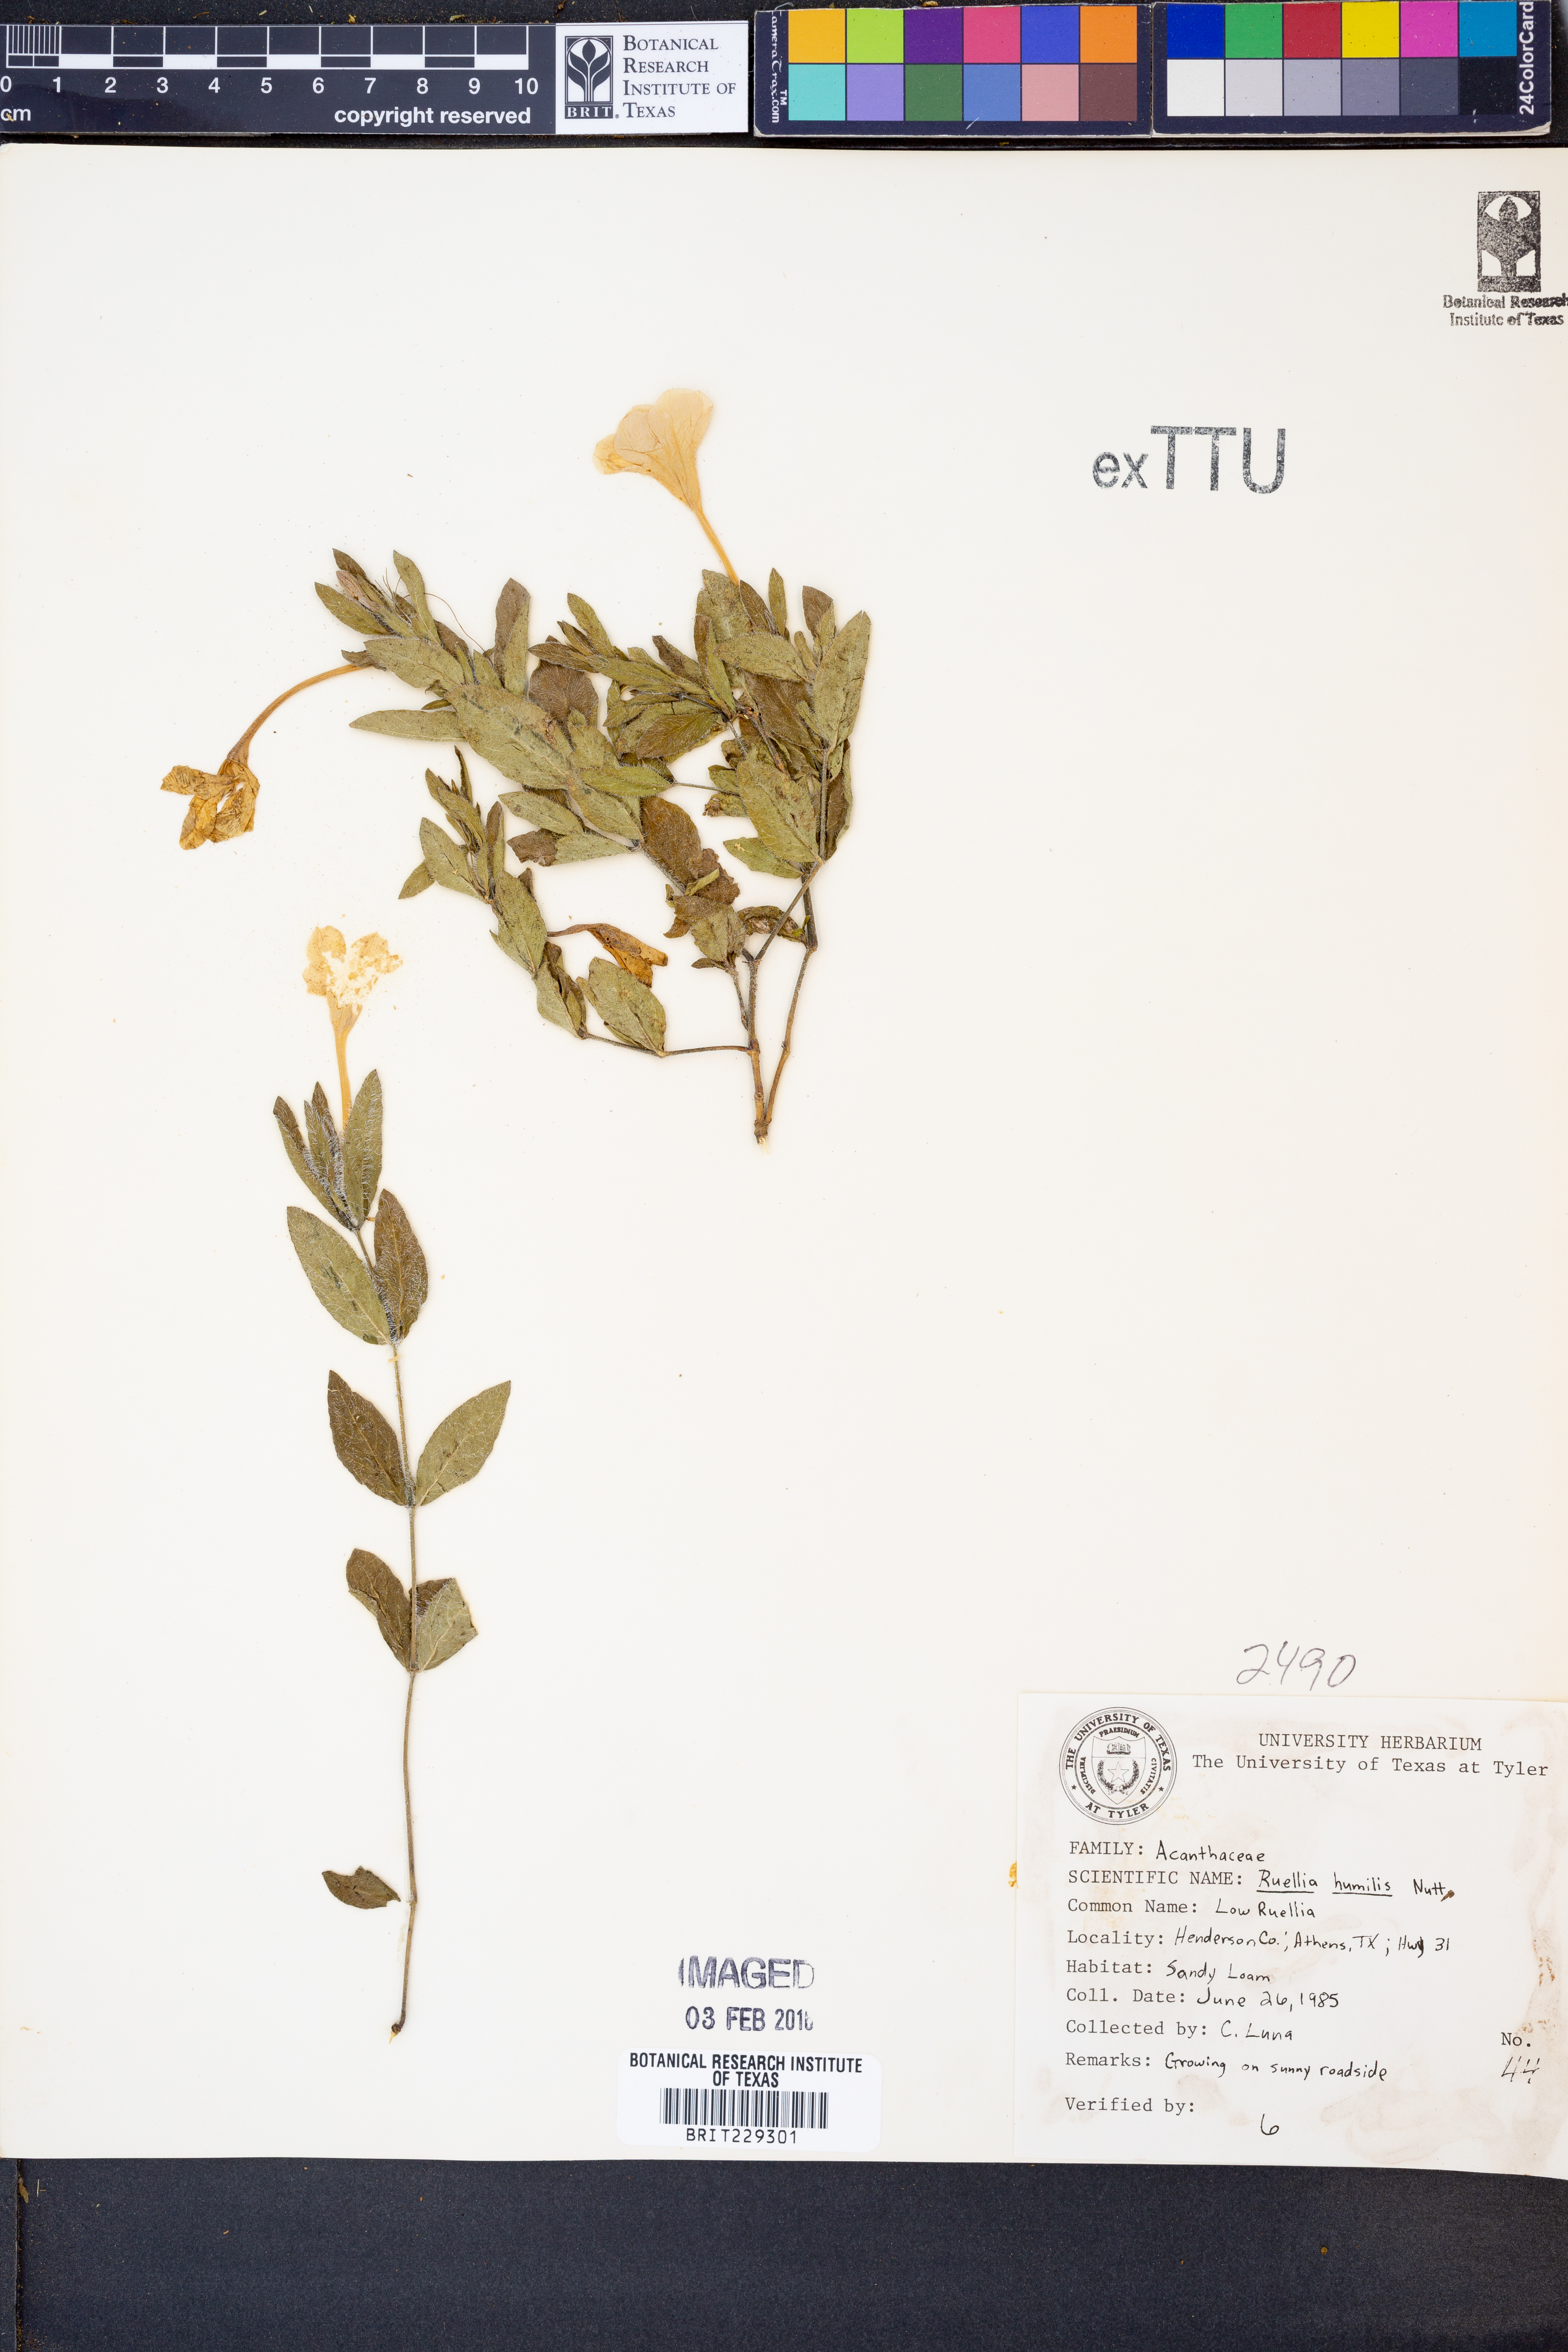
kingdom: Plantae
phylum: Tracheophyta
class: Magnoliopsida
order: Lamiales
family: Acanthaceae
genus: Ruellia
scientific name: Ruellia humilis
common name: Fringe-leaf ruellia
